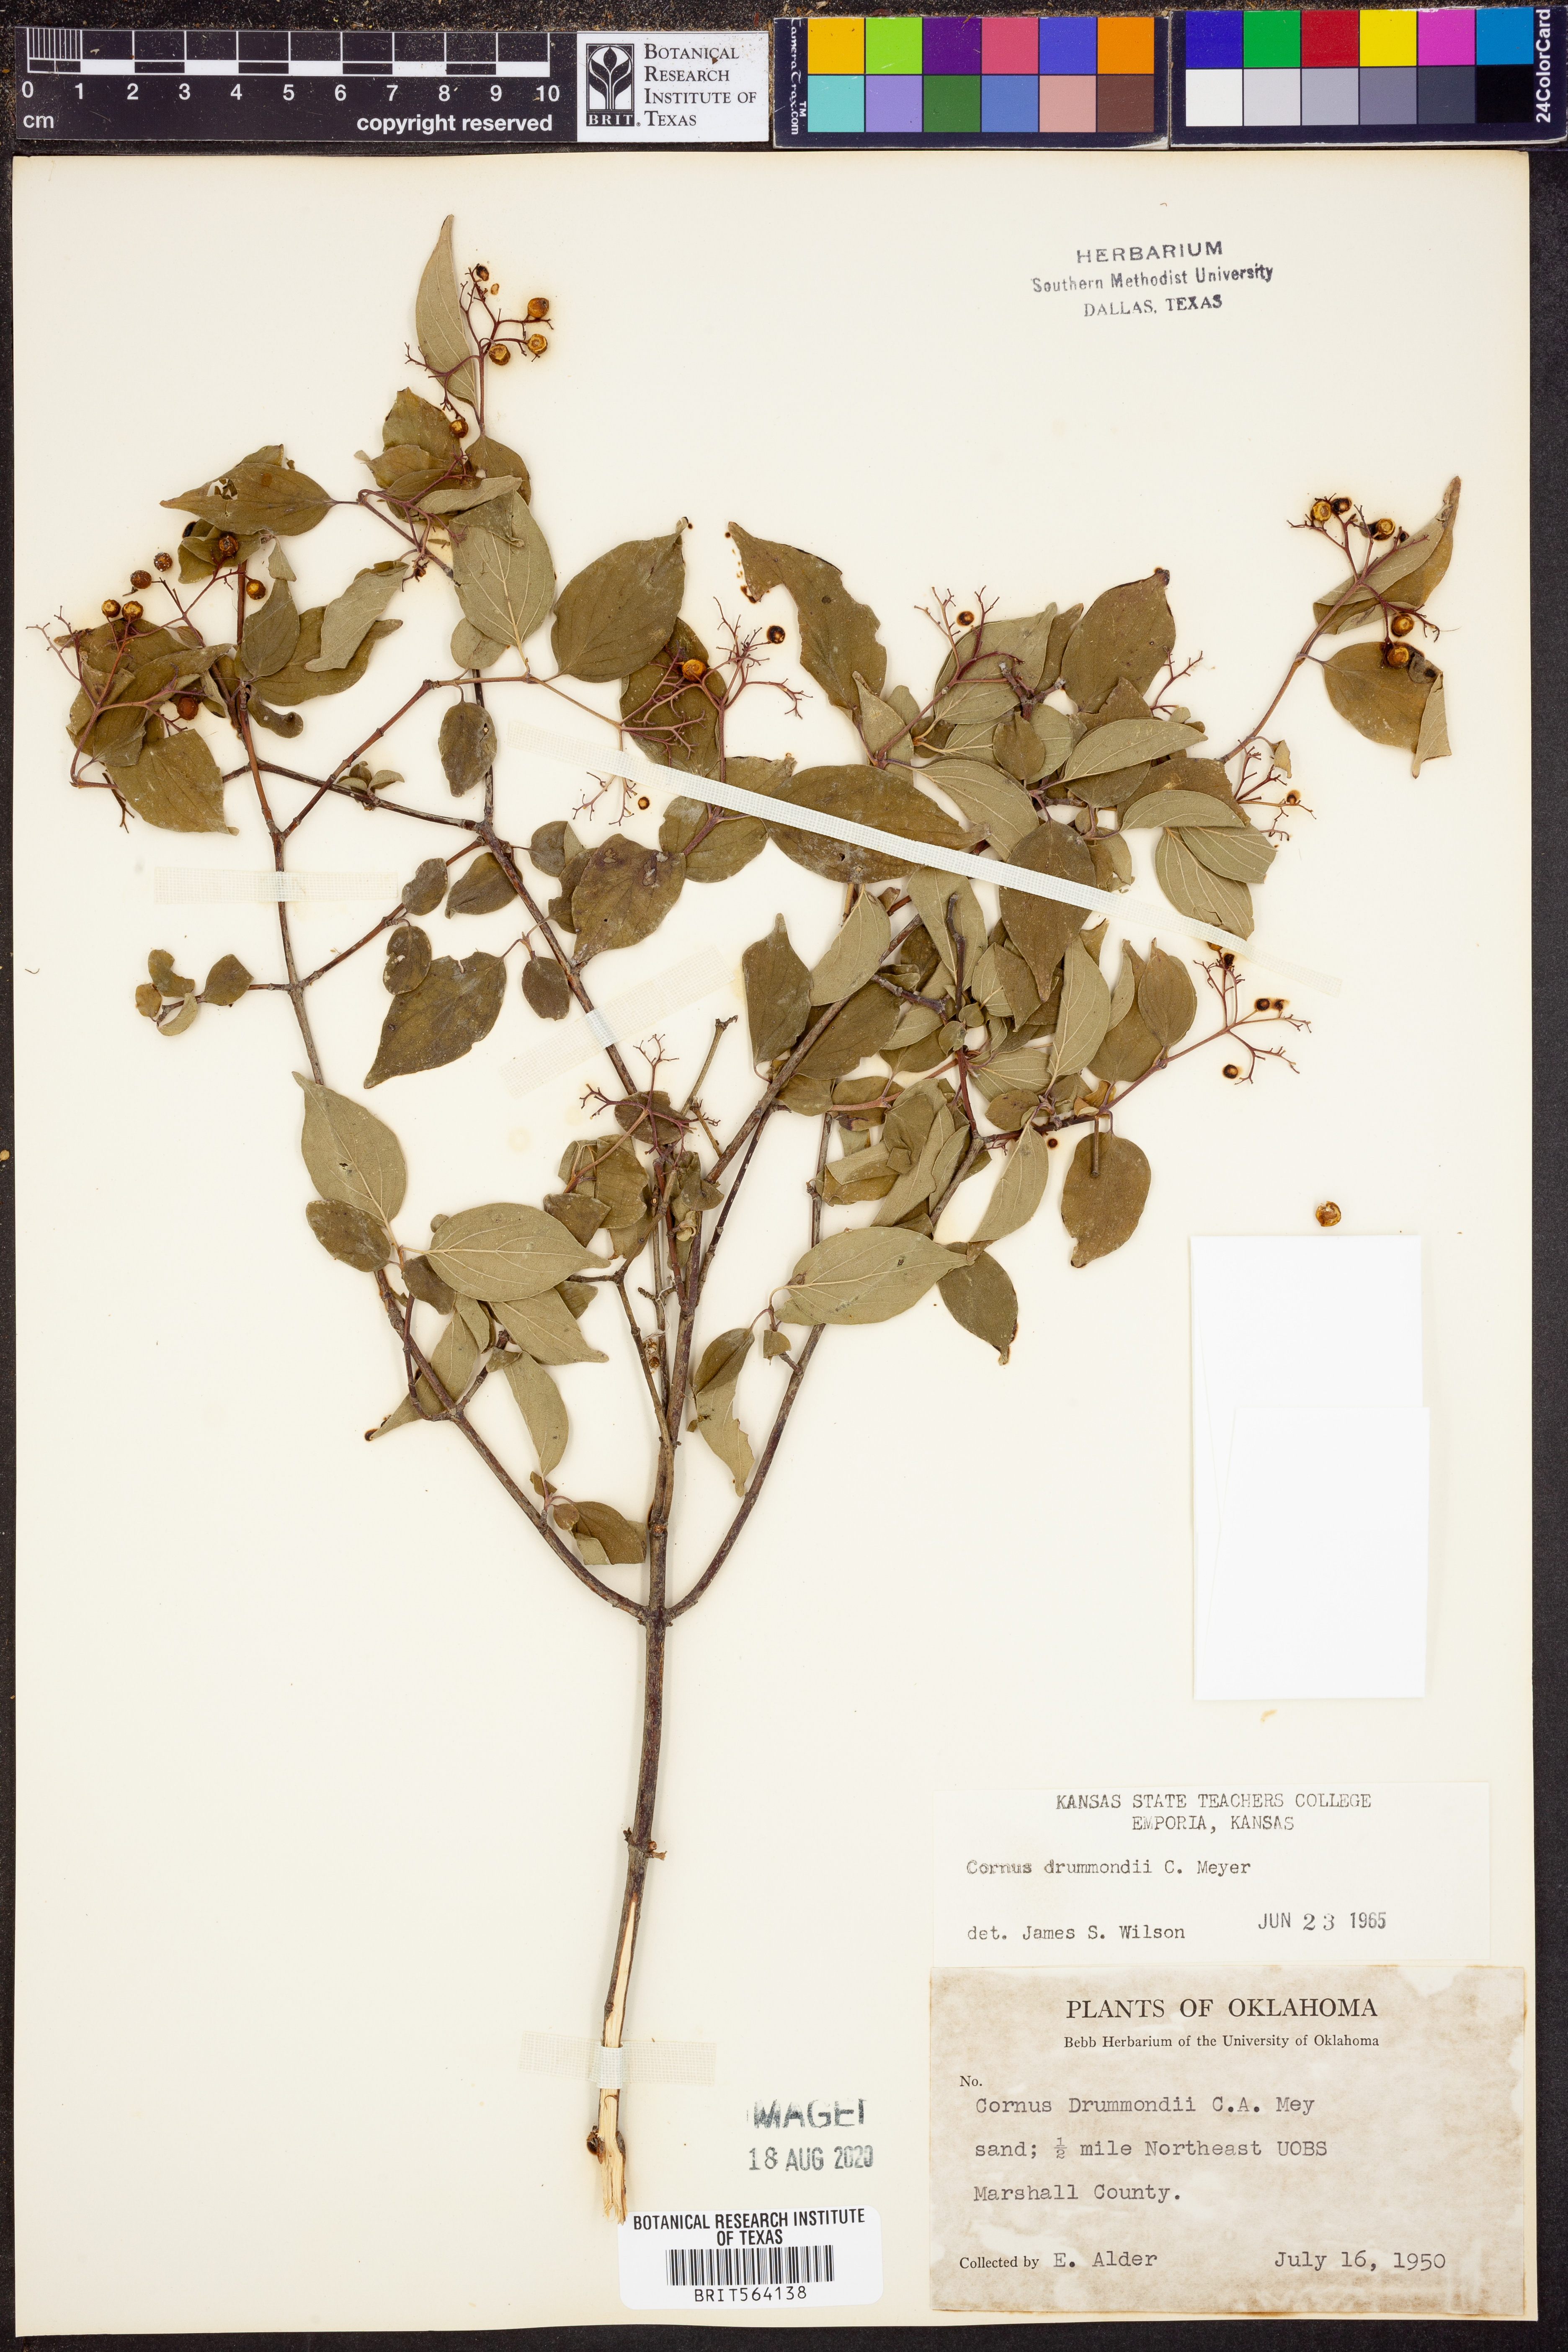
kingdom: Plantae
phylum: Tracheophyta
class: Magnoliopsida
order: Cornales
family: Cornaceae
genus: Cornus
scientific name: Cornus drummondii
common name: Rough-leaf dogwood
